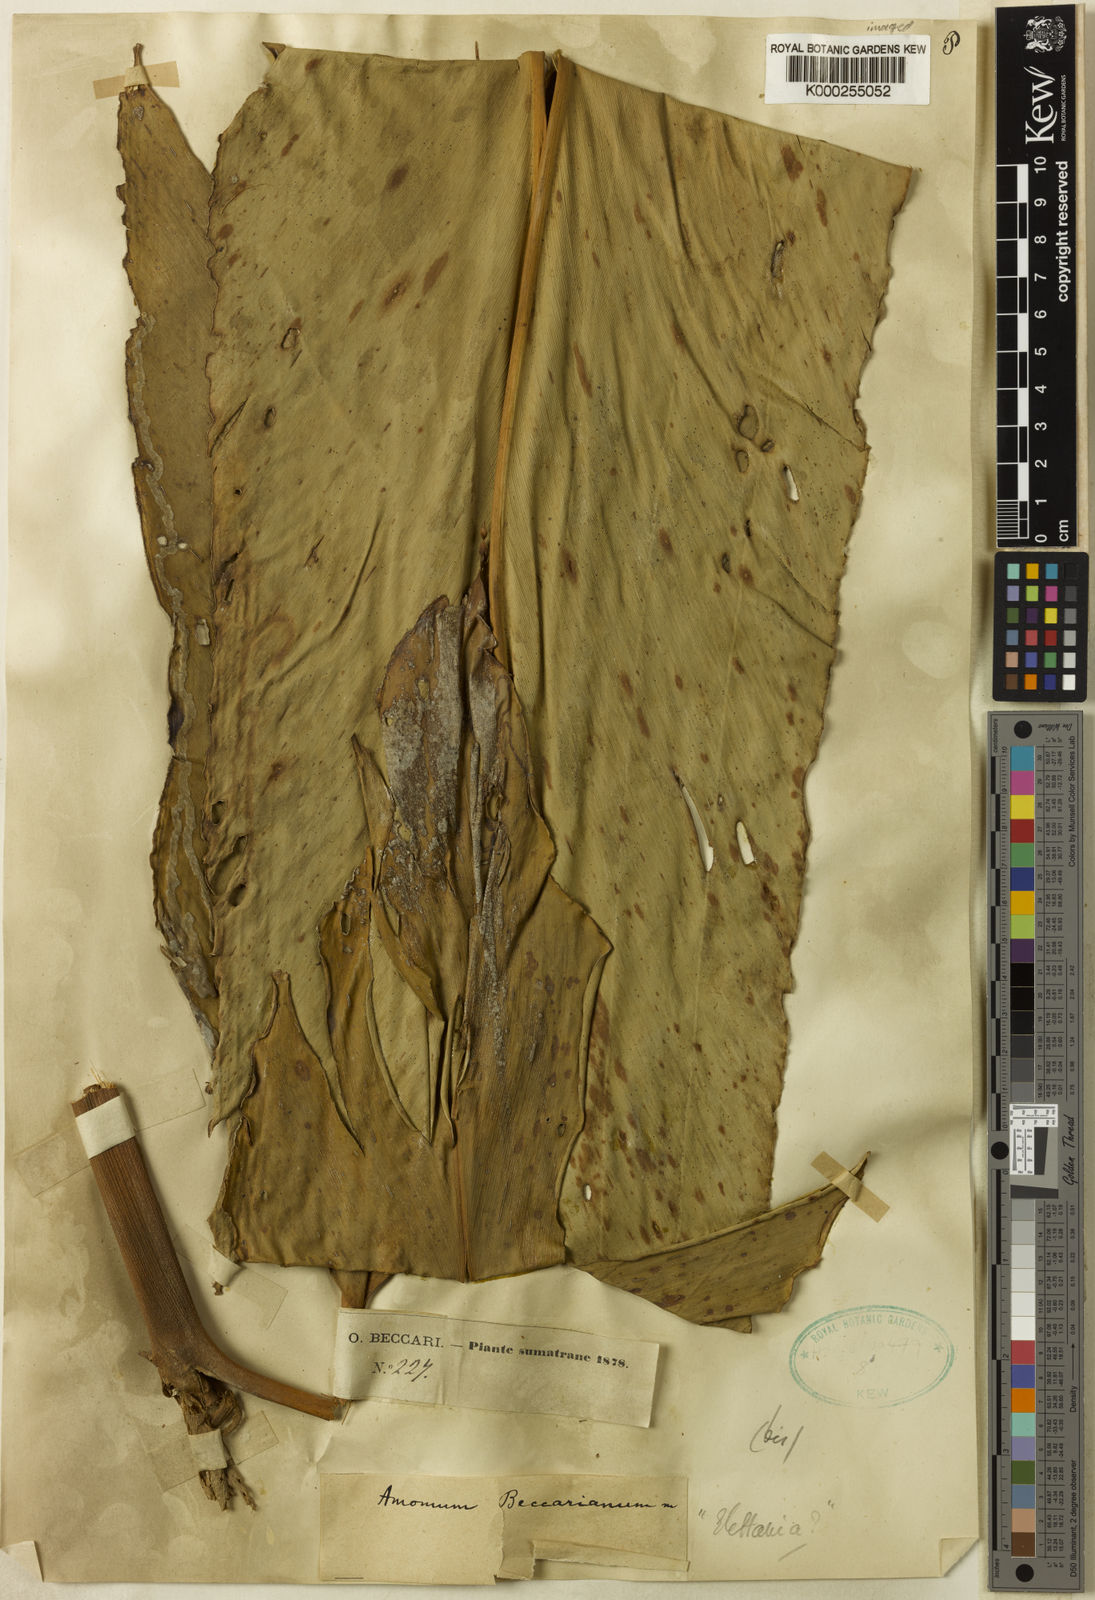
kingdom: Plantae
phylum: Tracheophyta
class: Liliopsida
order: Zingiberales
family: Zingiberaceae
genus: Etlingera
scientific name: Etlingera solaris
